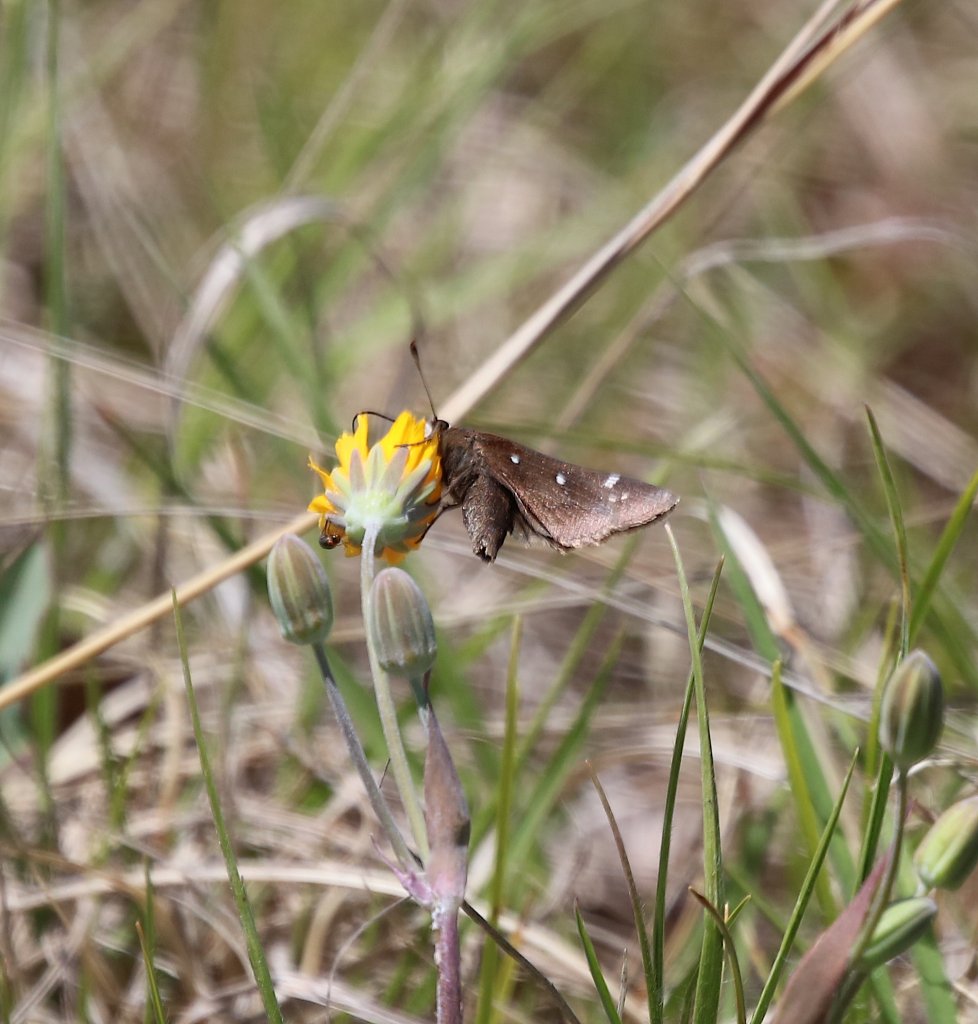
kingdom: Animalia
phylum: Arthropoda
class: Insecta
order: Lepidoptera
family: Hesperiidae
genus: Mastor
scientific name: Mastor vialis
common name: Common Roadside-Skipper
